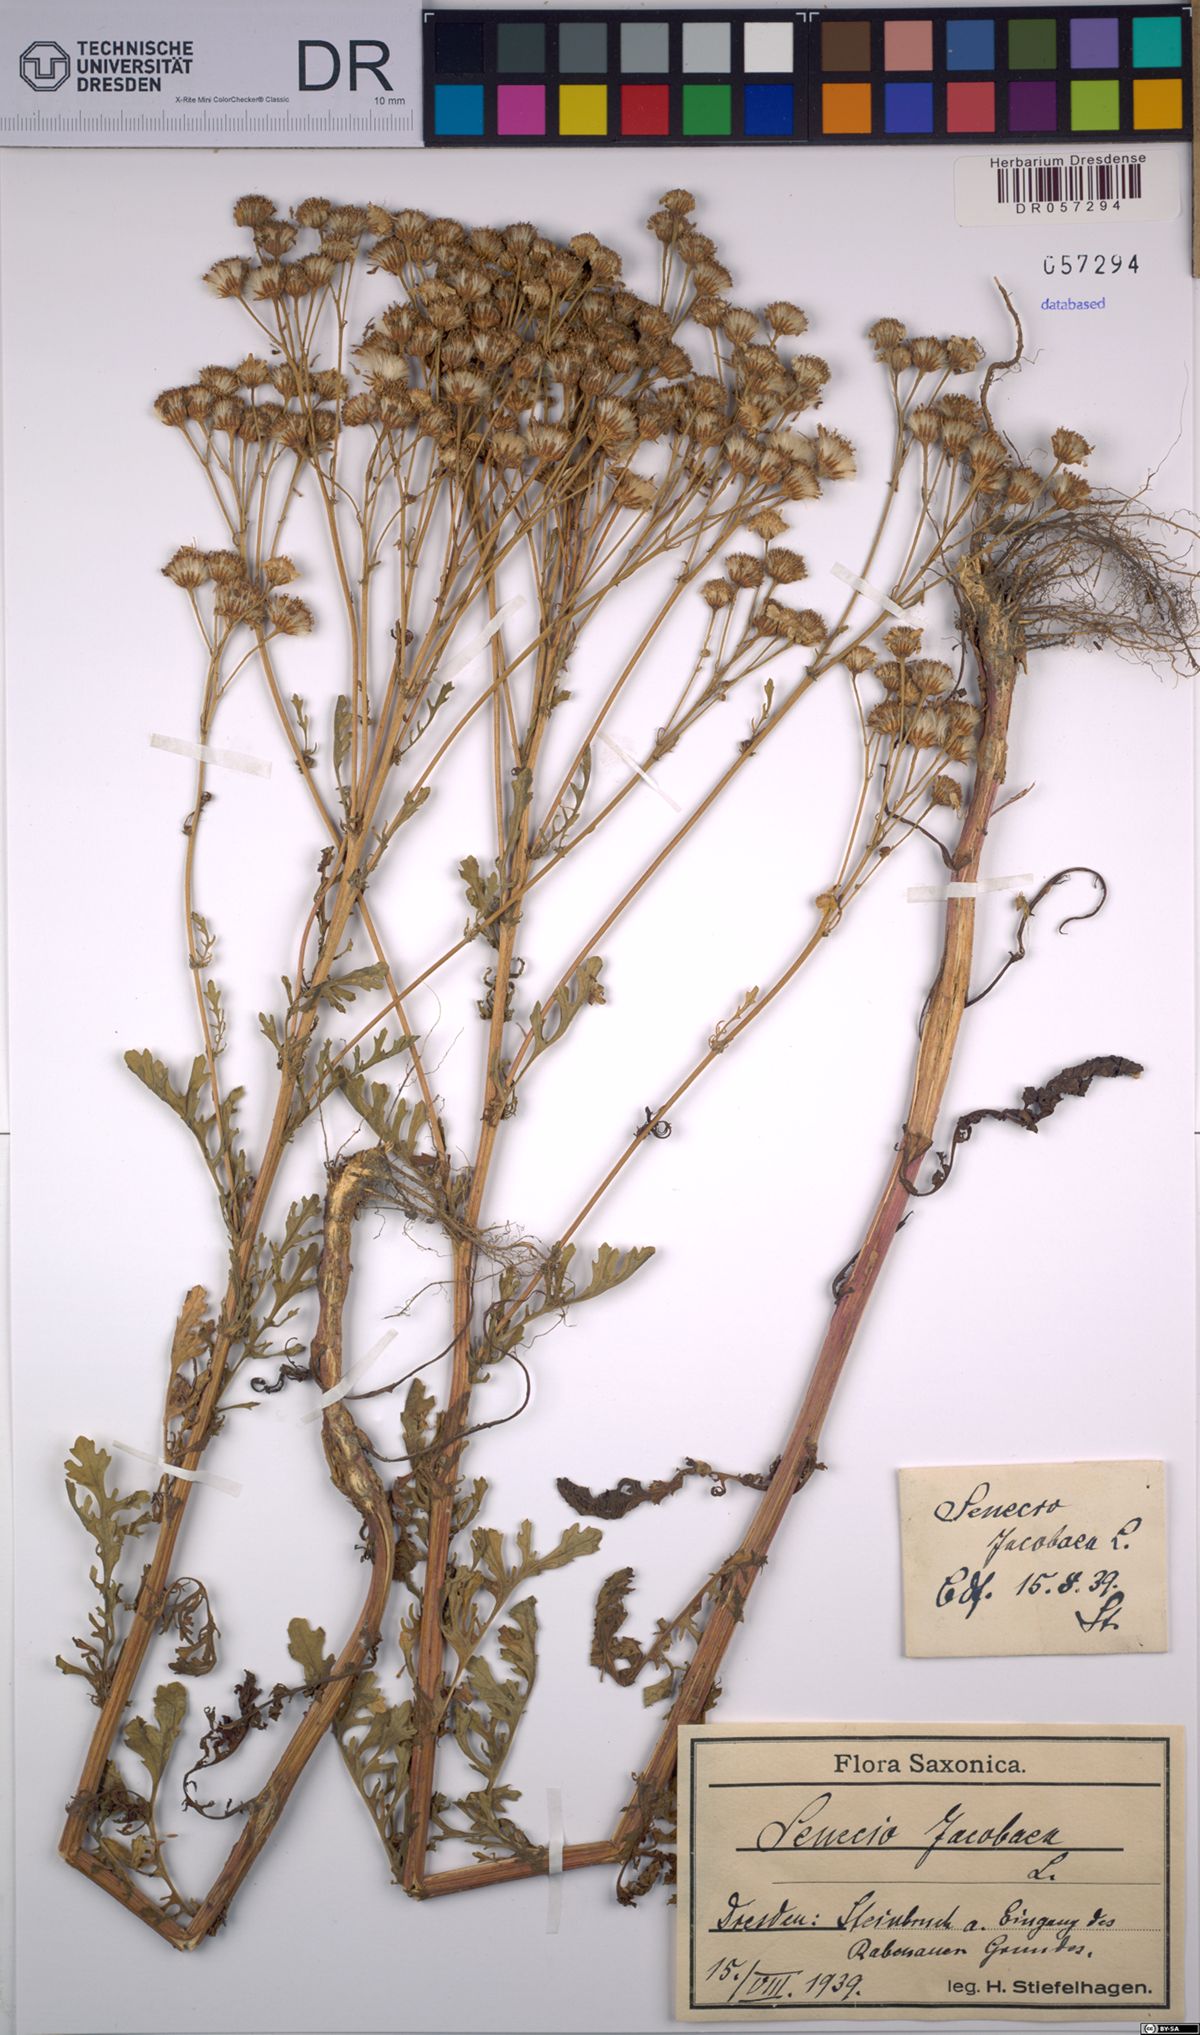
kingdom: Plantae
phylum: Tracheophyta
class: Magnoliopsida
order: Asterales
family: Asteraceae
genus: Jacobaea
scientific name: Jacobaea vulgaris
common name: Stinking willie
